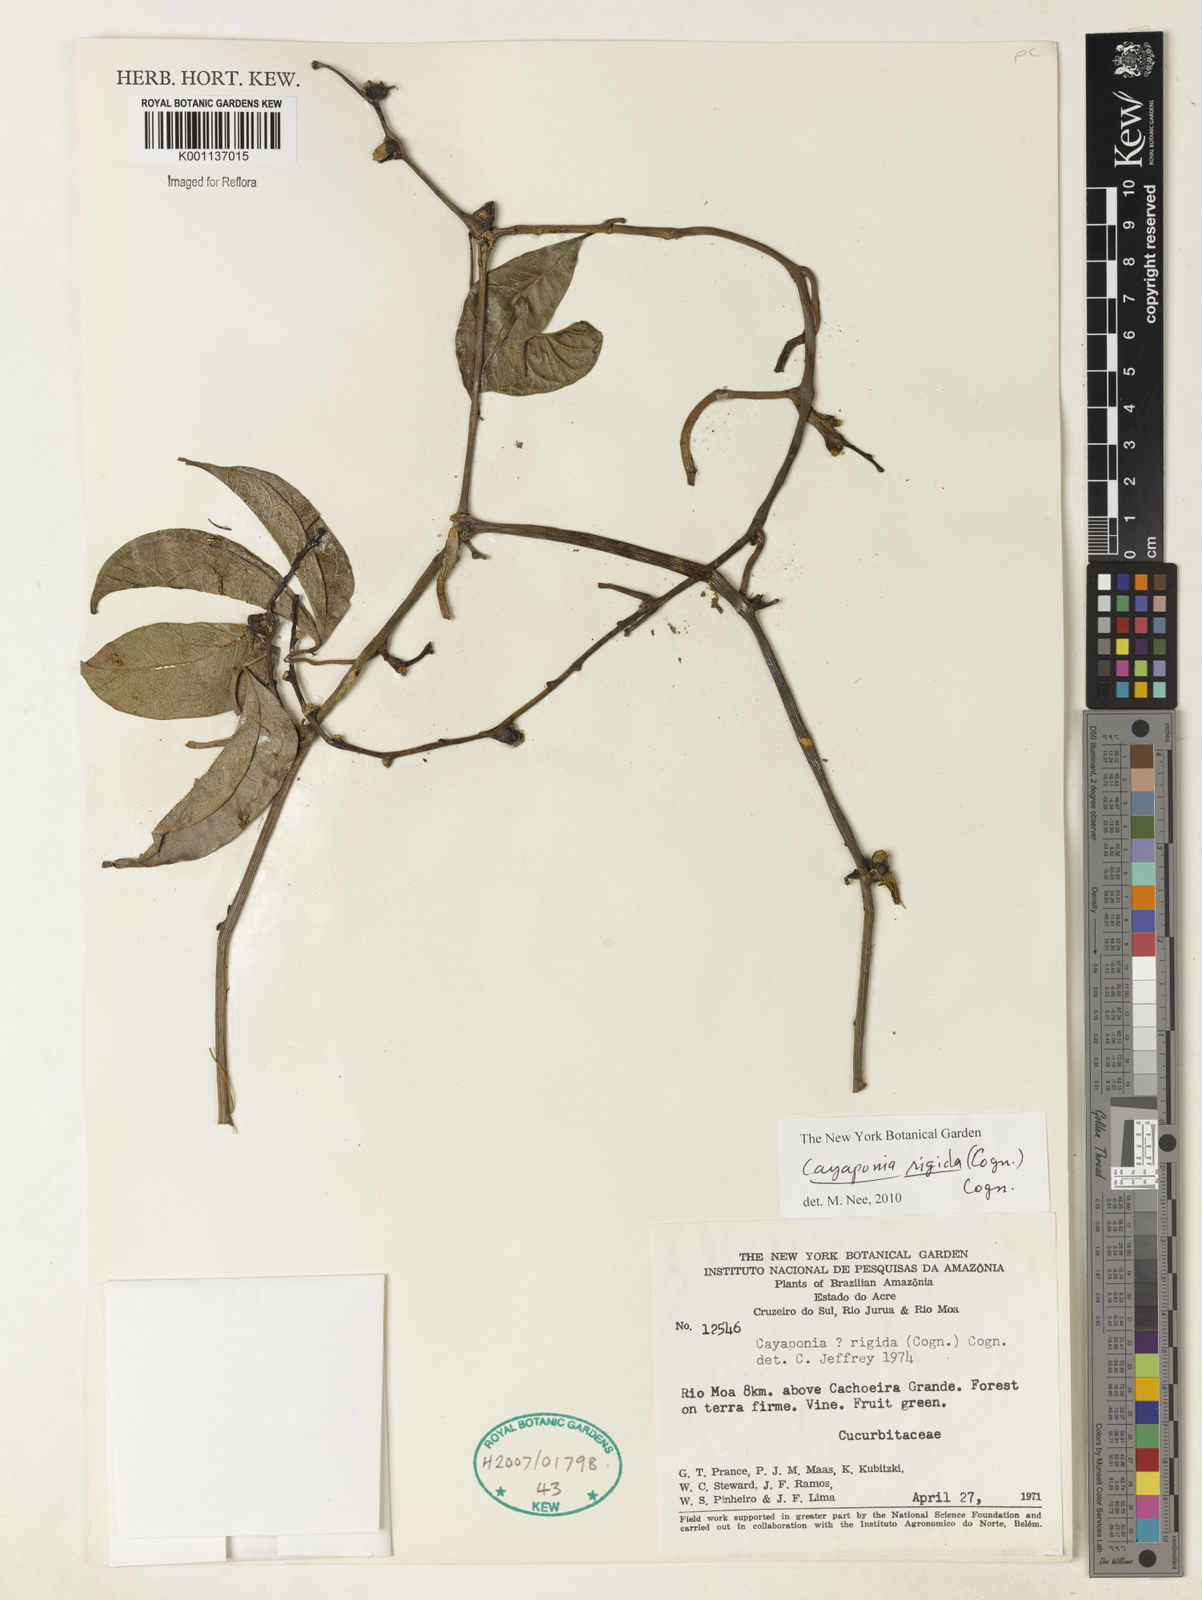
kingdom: Plantae
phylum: Tracheophyta
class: Magnoliopsida
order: Cucurbitales
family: Cucurbitaceae
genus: Cayaponia
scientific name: Cayaponia rigida
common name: Boskomkommer
